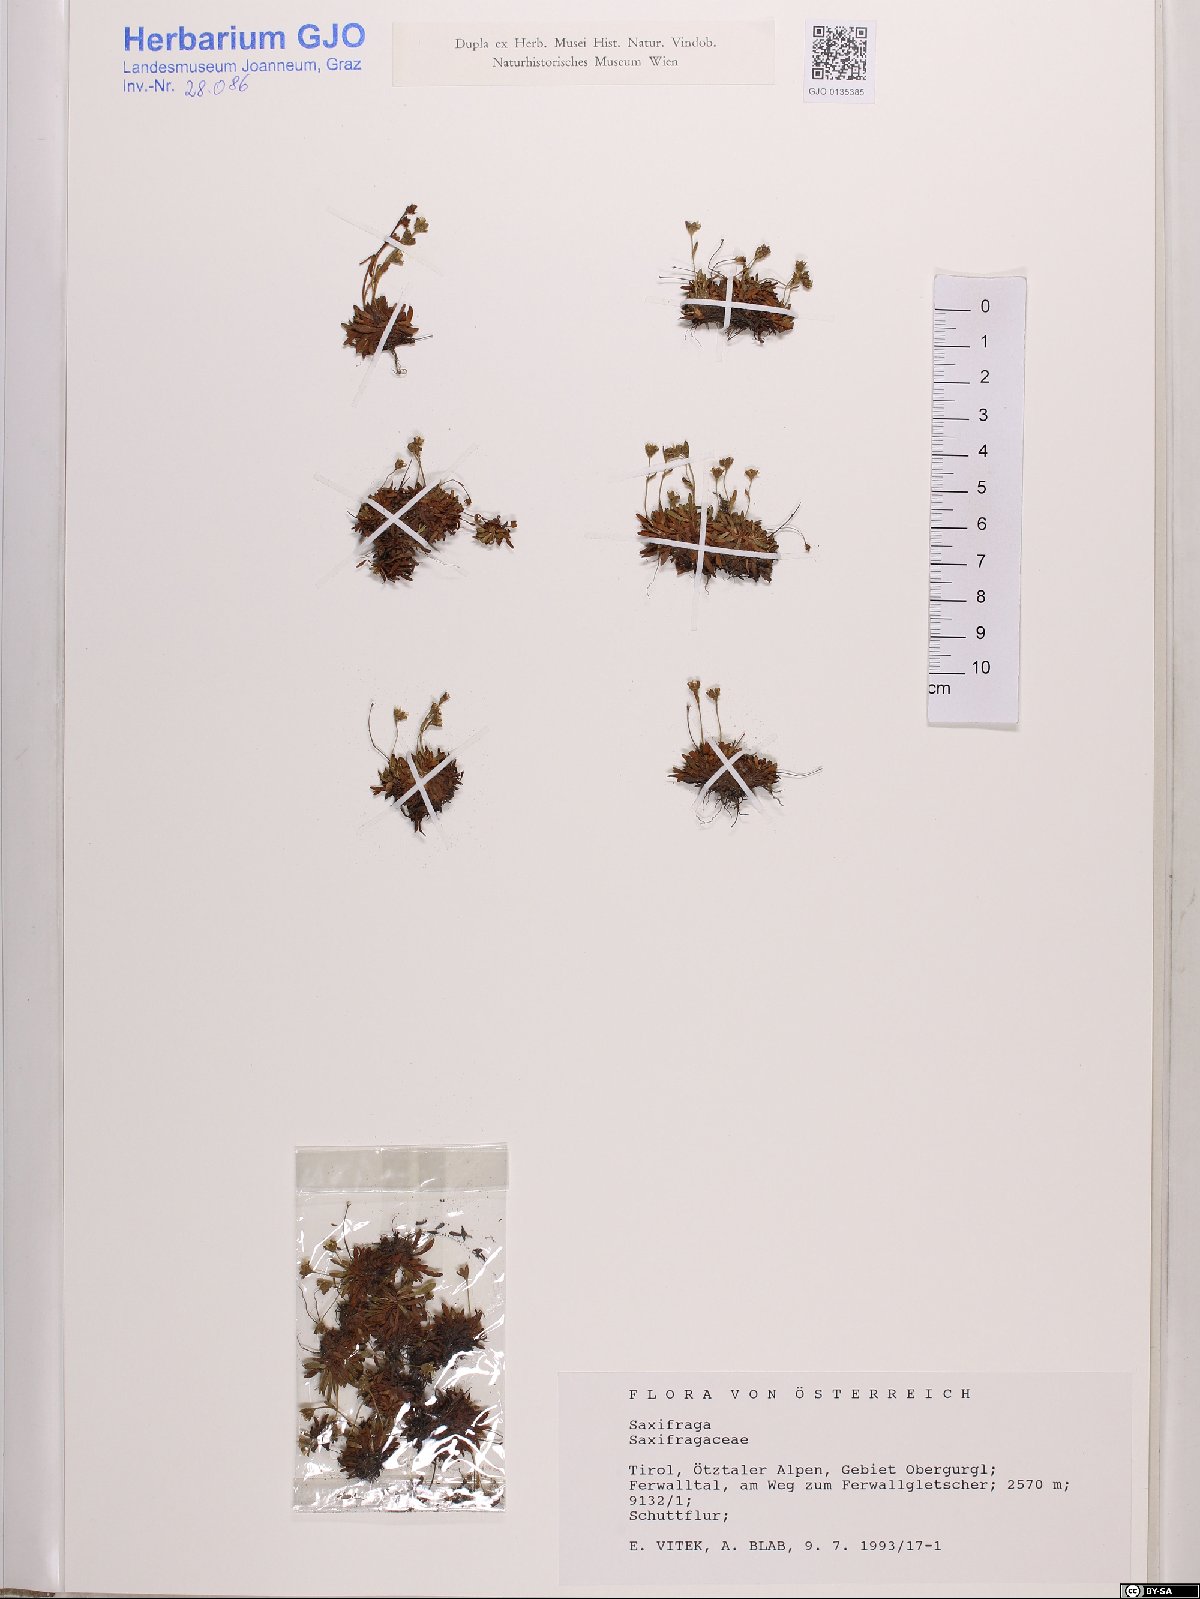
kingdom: Plantae
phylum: Tracheophyta
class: Magnoliopsida
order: Saxifragales
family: Saxifragaceae
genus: Saxifraga
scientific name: Saxifraga
